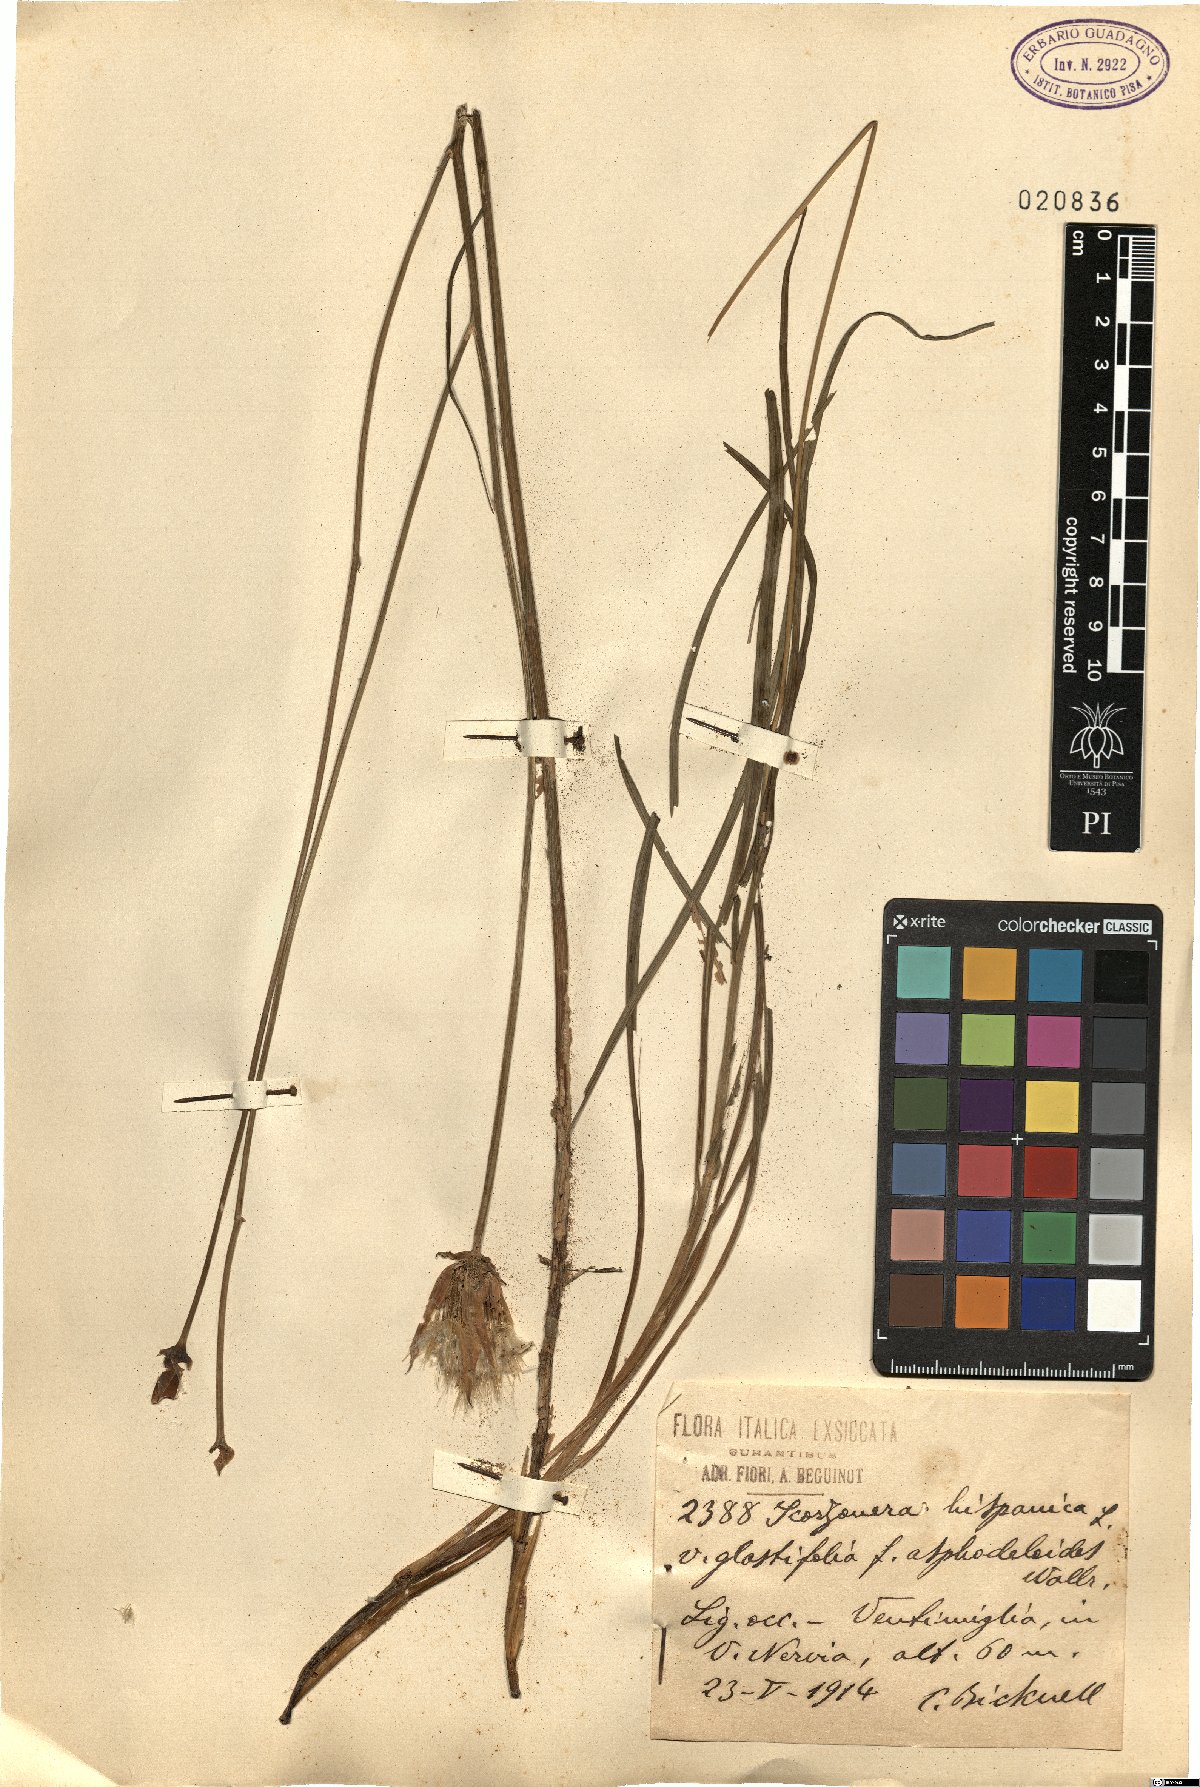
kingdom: Plantae
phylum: Tracheophyta
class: Magnoliopsida
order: Asterales
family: Asteraceae
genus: Pseudopodospermum
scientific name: Pseudopodospermum hispanicum
